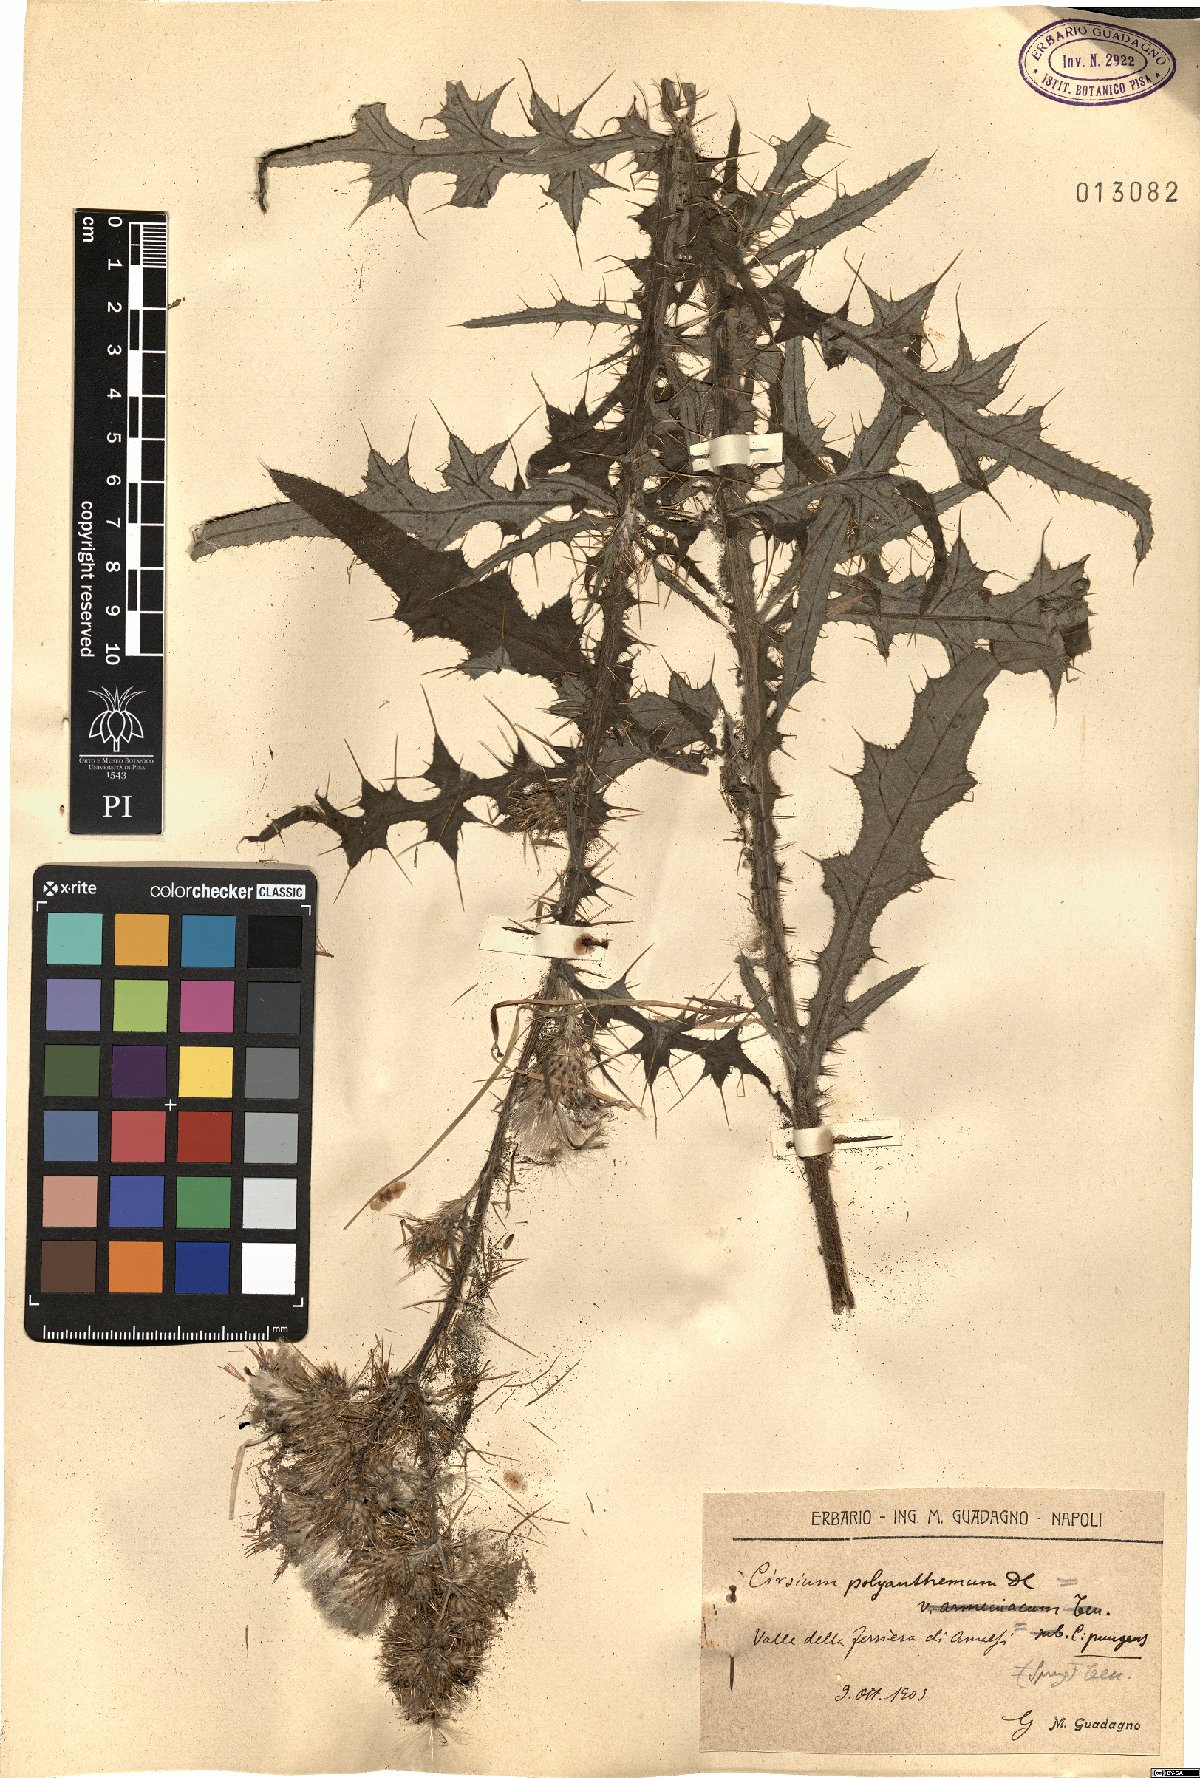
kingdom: Plantae
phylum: Tracheophyta
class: Magnoliopsida
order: Asterales
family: Asteraceae
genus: Carduus
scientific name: Carduus collinus
